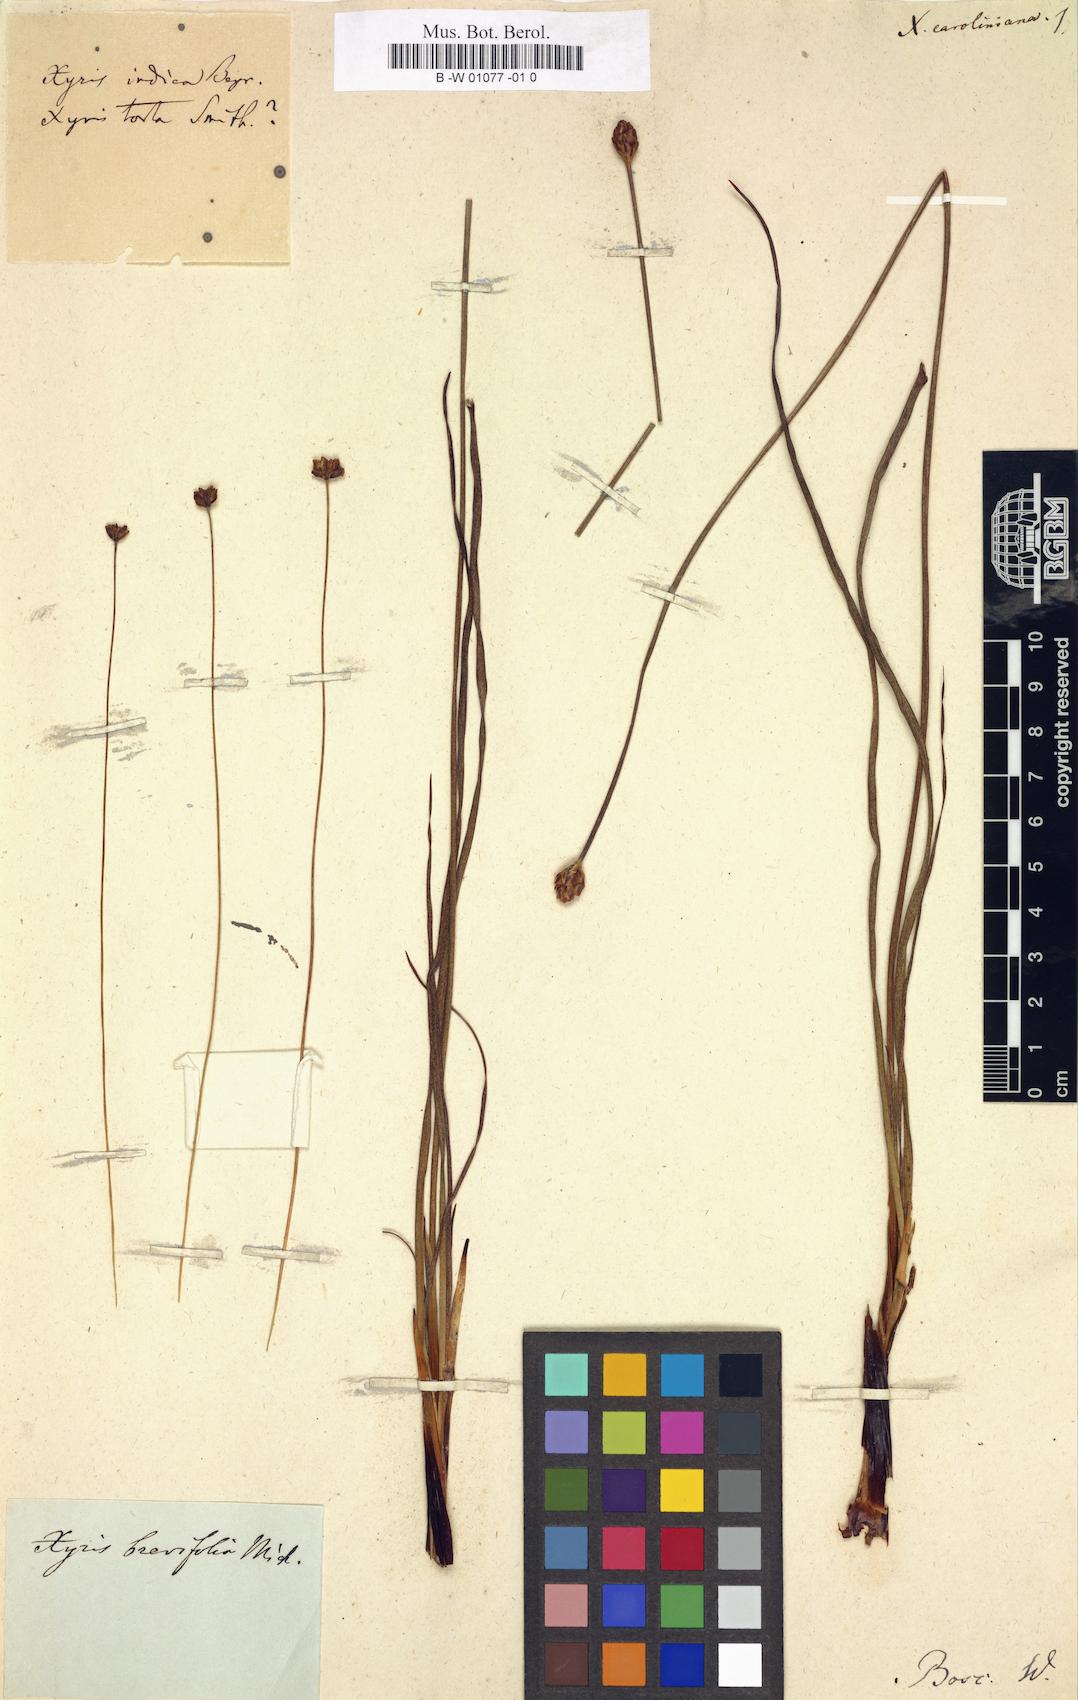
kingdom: Plantae
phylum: Tracheophyta
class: Liliopsida
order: Poales
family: Xyridaceae
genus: Xyris
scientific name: Xyris caroliniana
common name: Carolina yellow-eyed-grass
